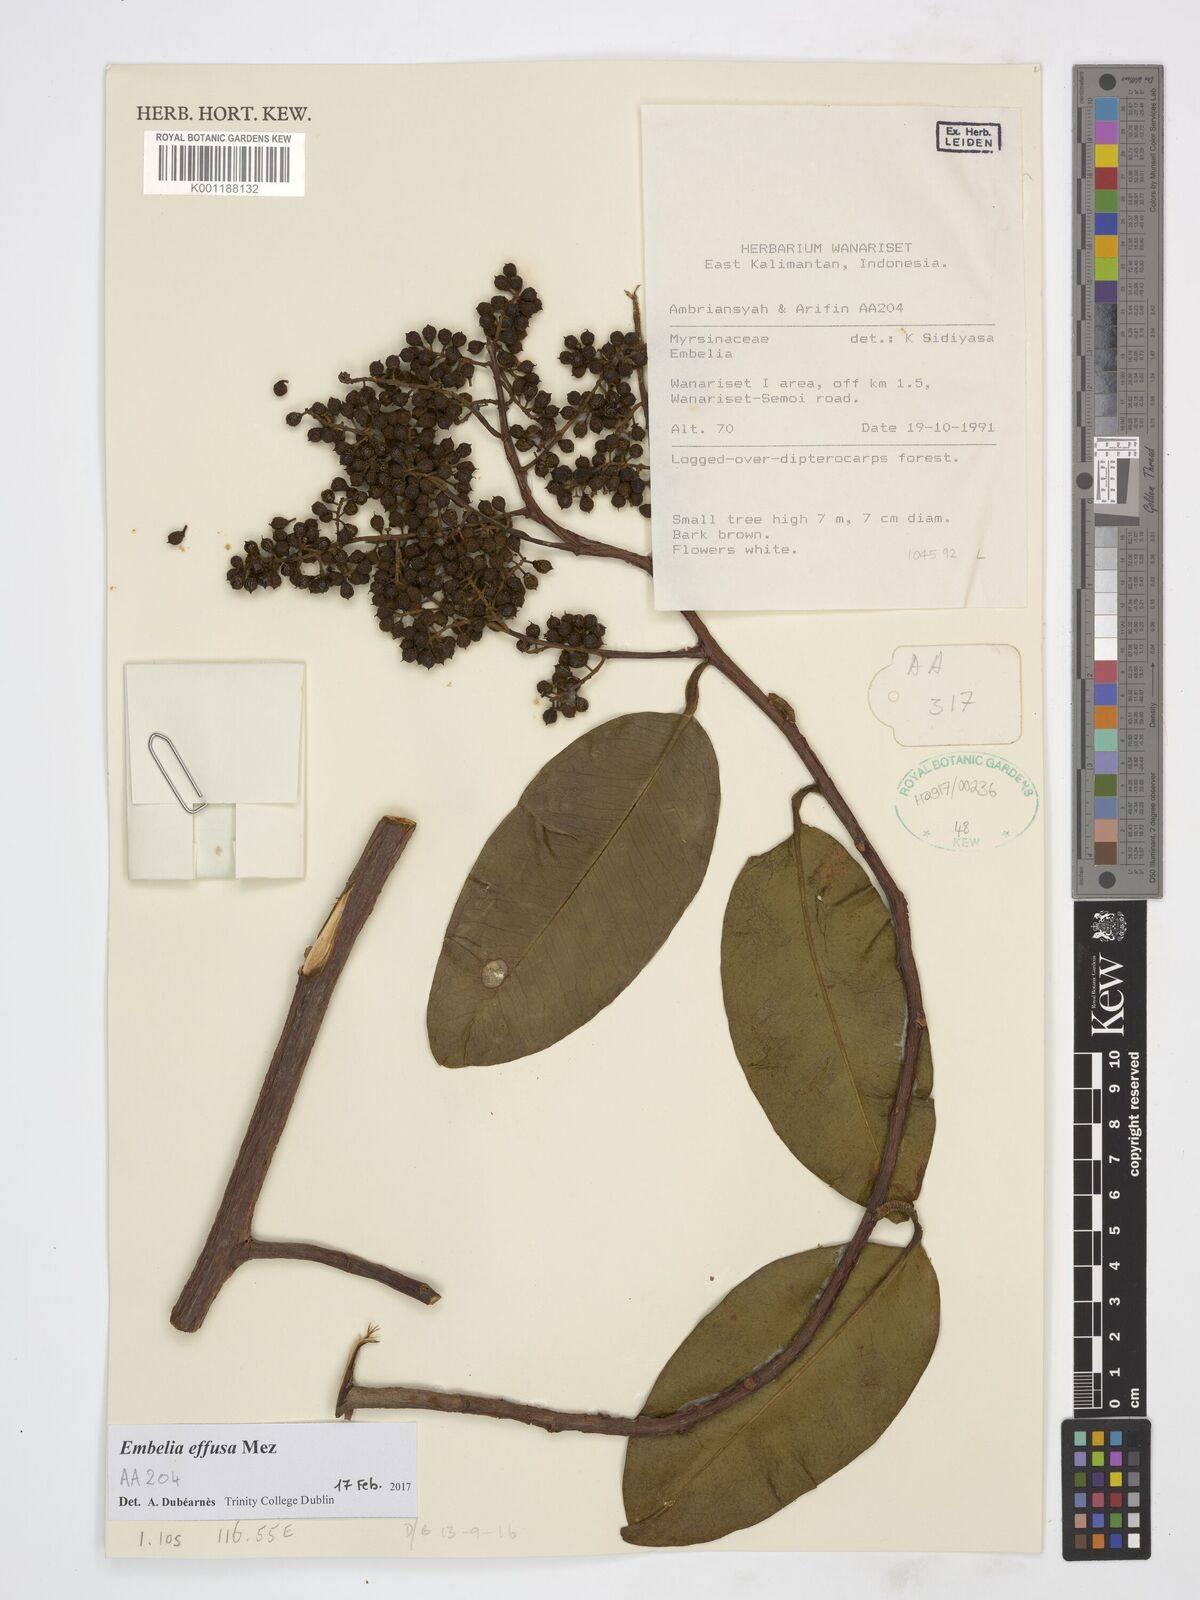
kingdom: Plantae
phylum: Tracheophyta
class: Magnoliopsida
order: Ericales
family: Primulaceae
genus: Embelia
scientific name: Embelia effusa
